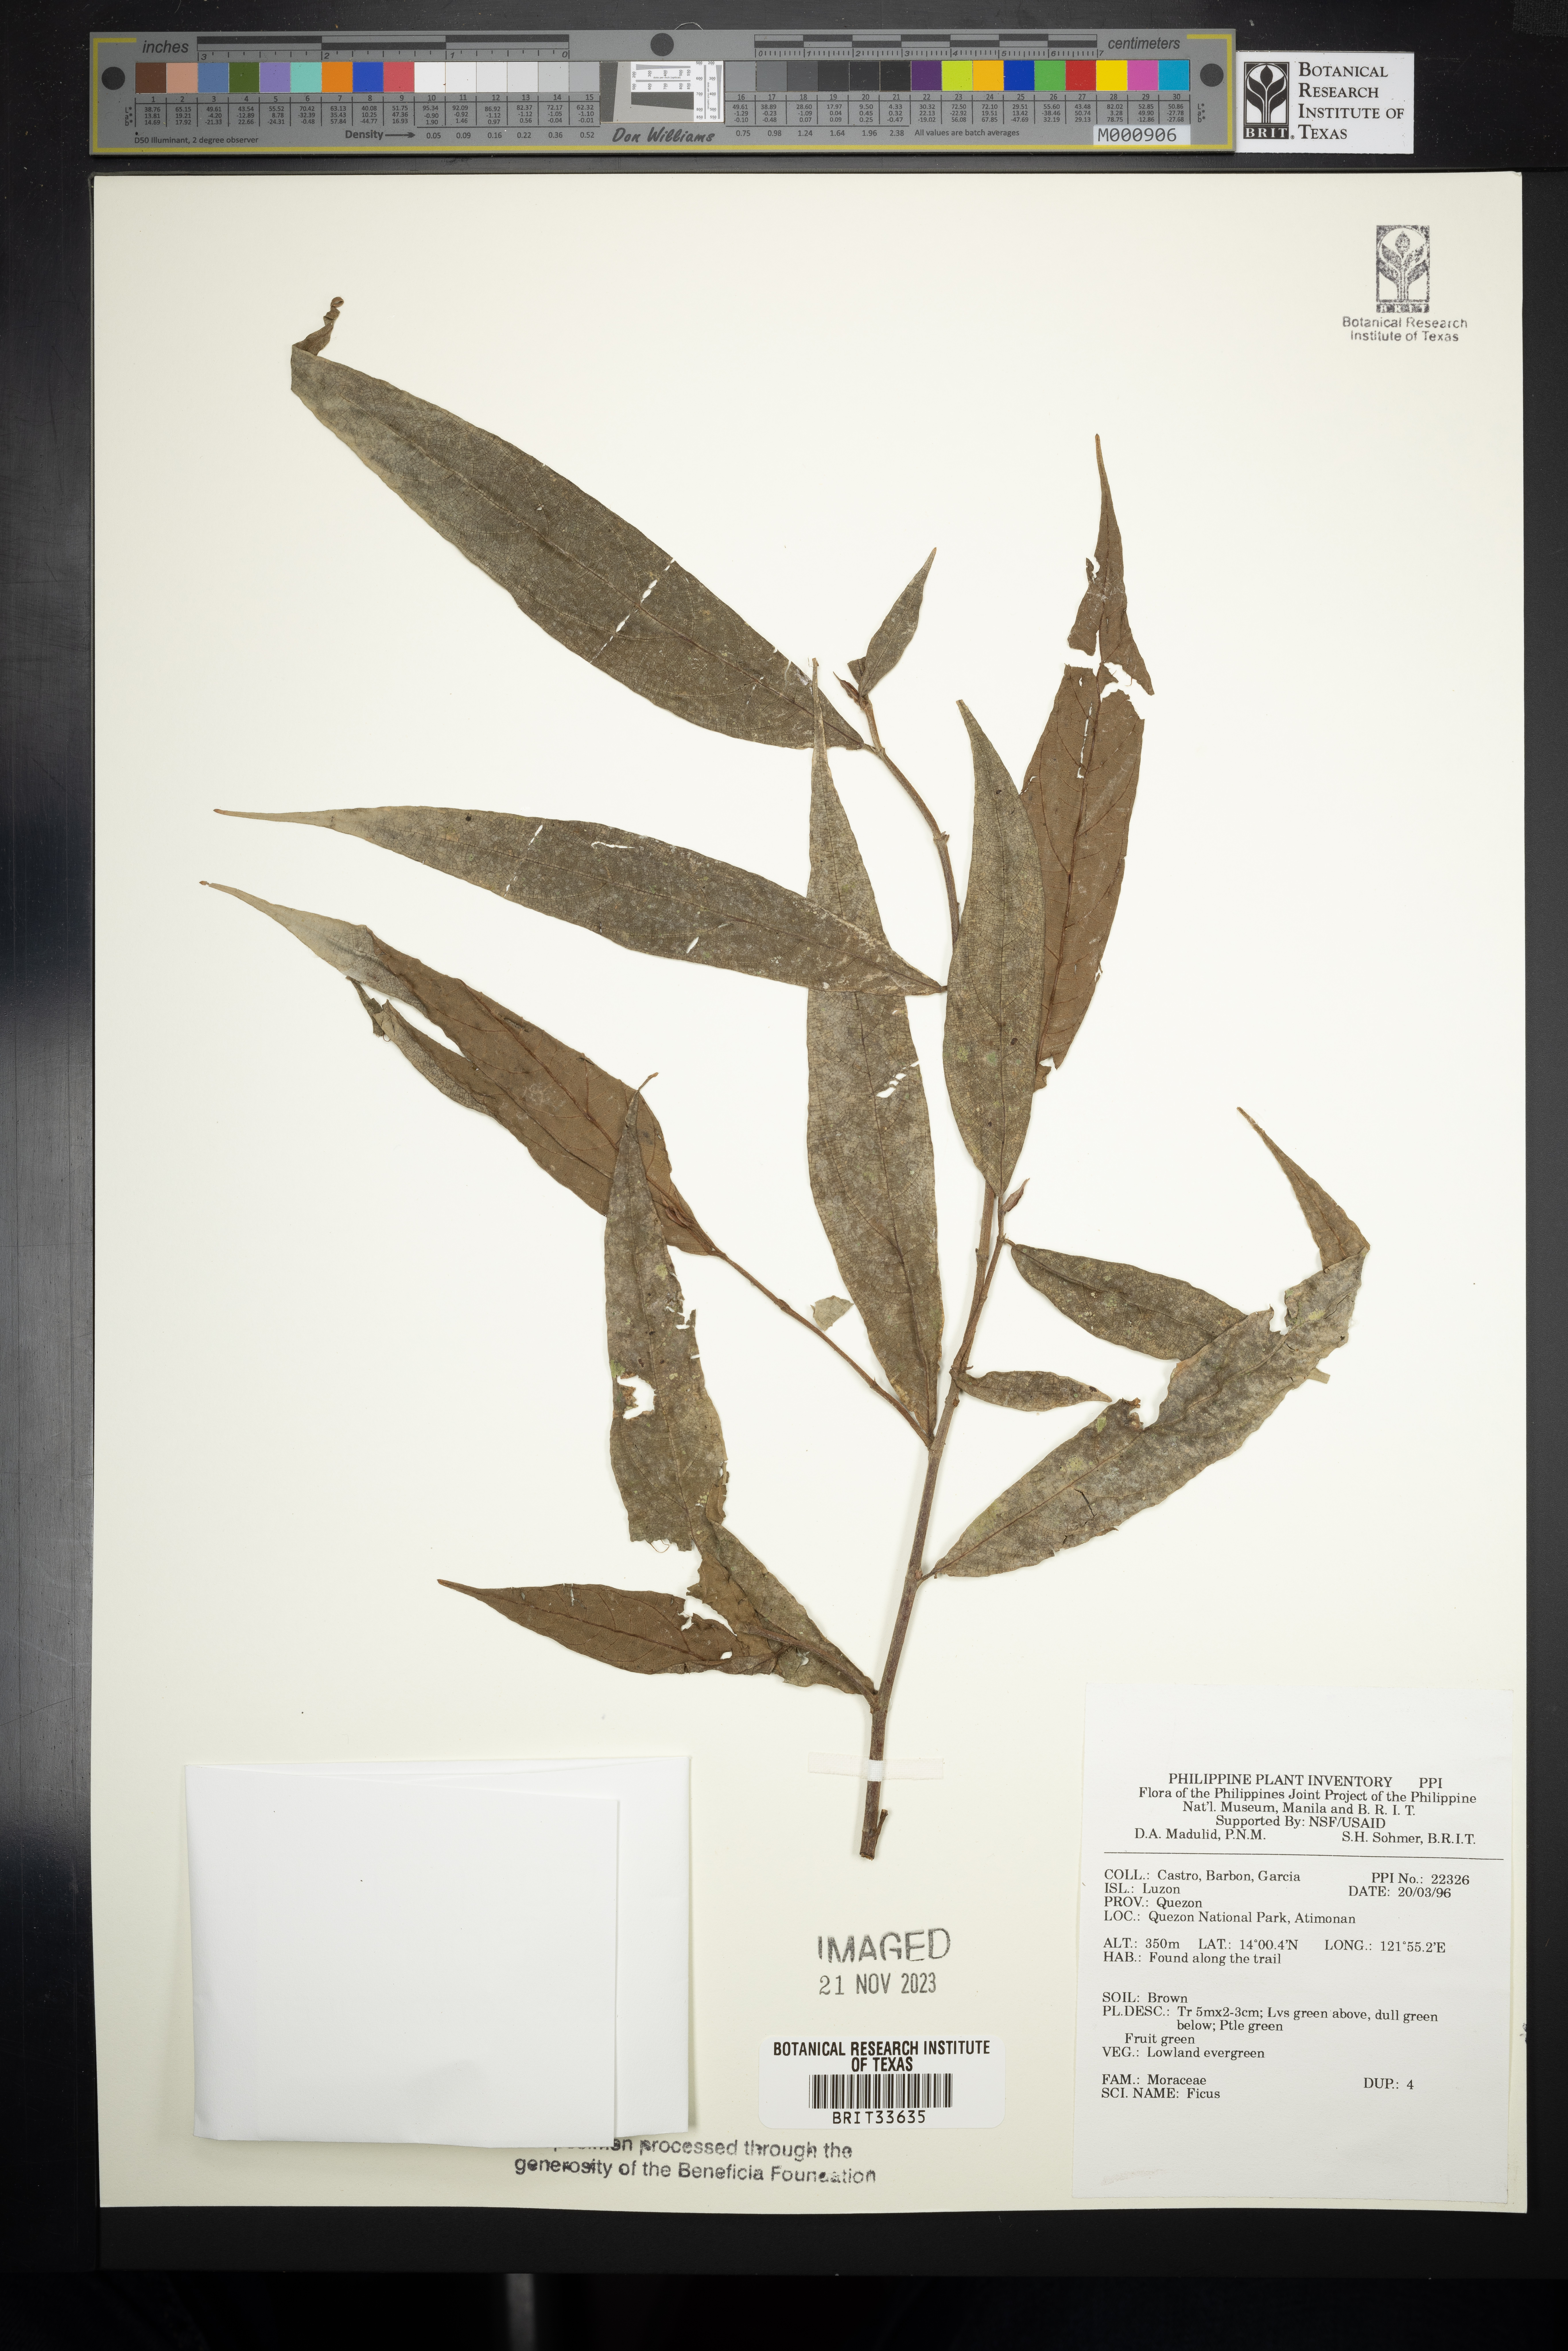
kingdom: Plantae
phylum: Tracheophyta
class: Magnoliopsida
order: Rosales
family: Moraceae
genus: Ficus
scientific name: Ficus
